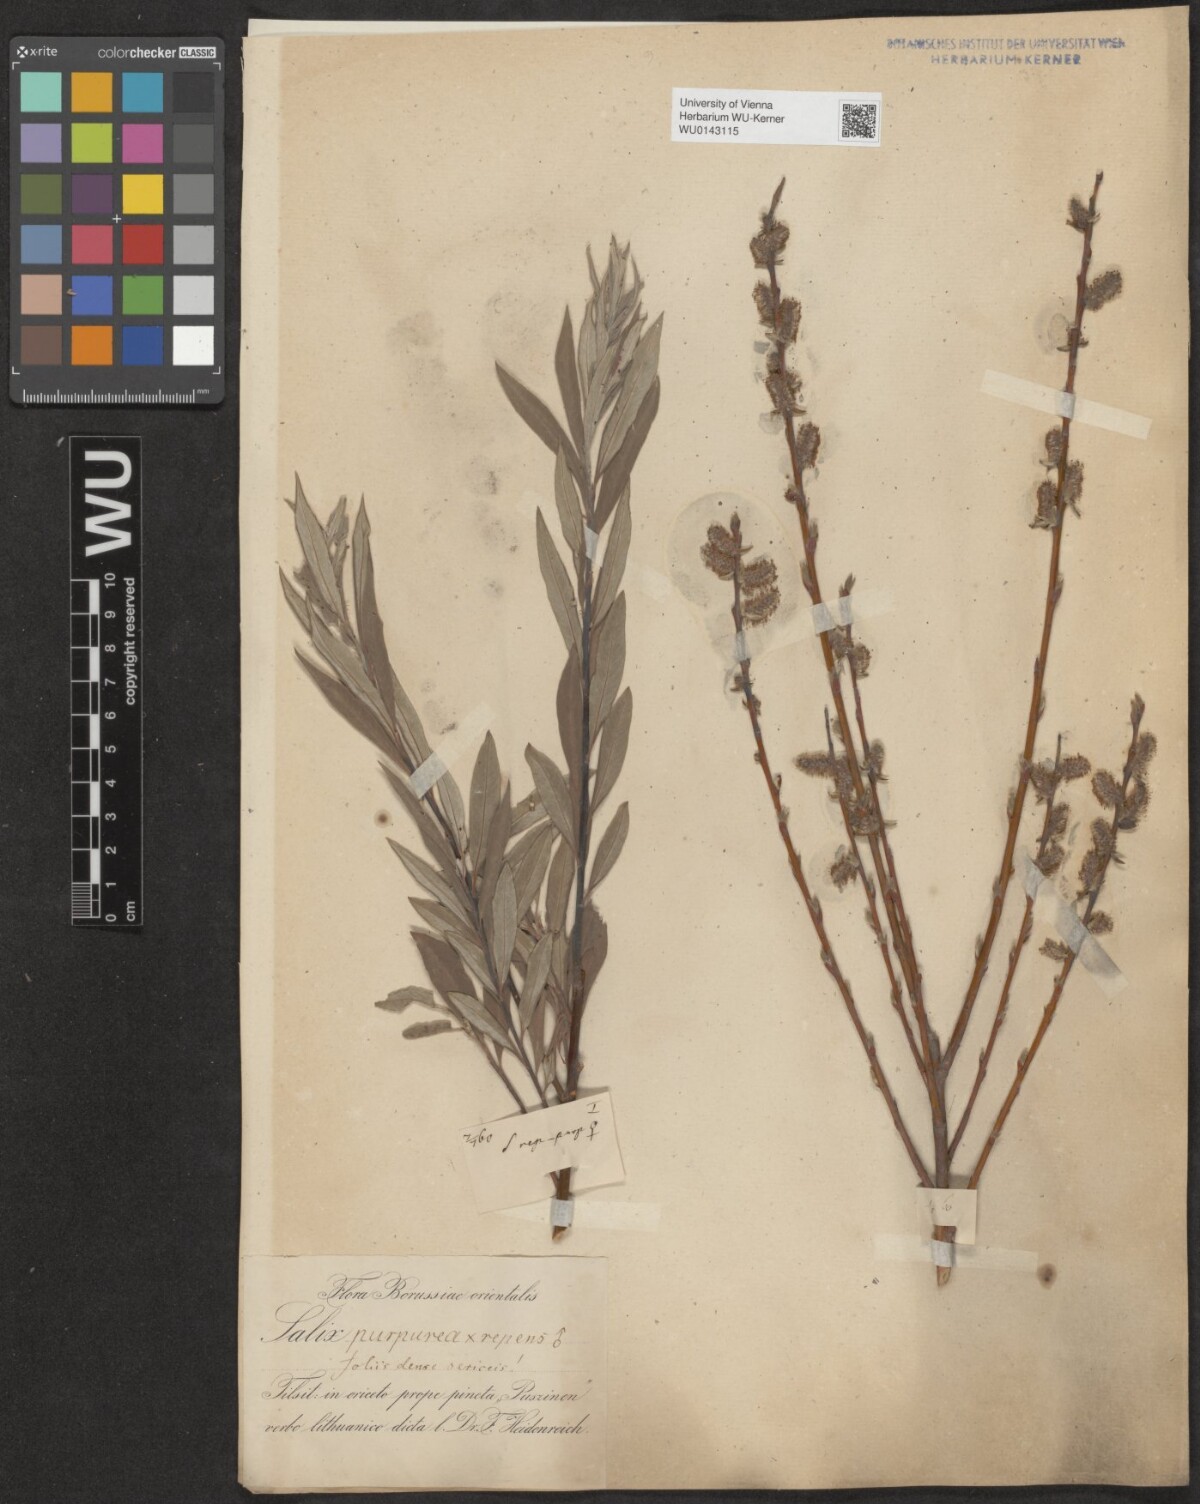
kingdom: Plantae
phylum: Tracheophyta
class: Magnoliopsida
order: Malpighiales
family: Salicaceae
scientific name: Salicaceae
